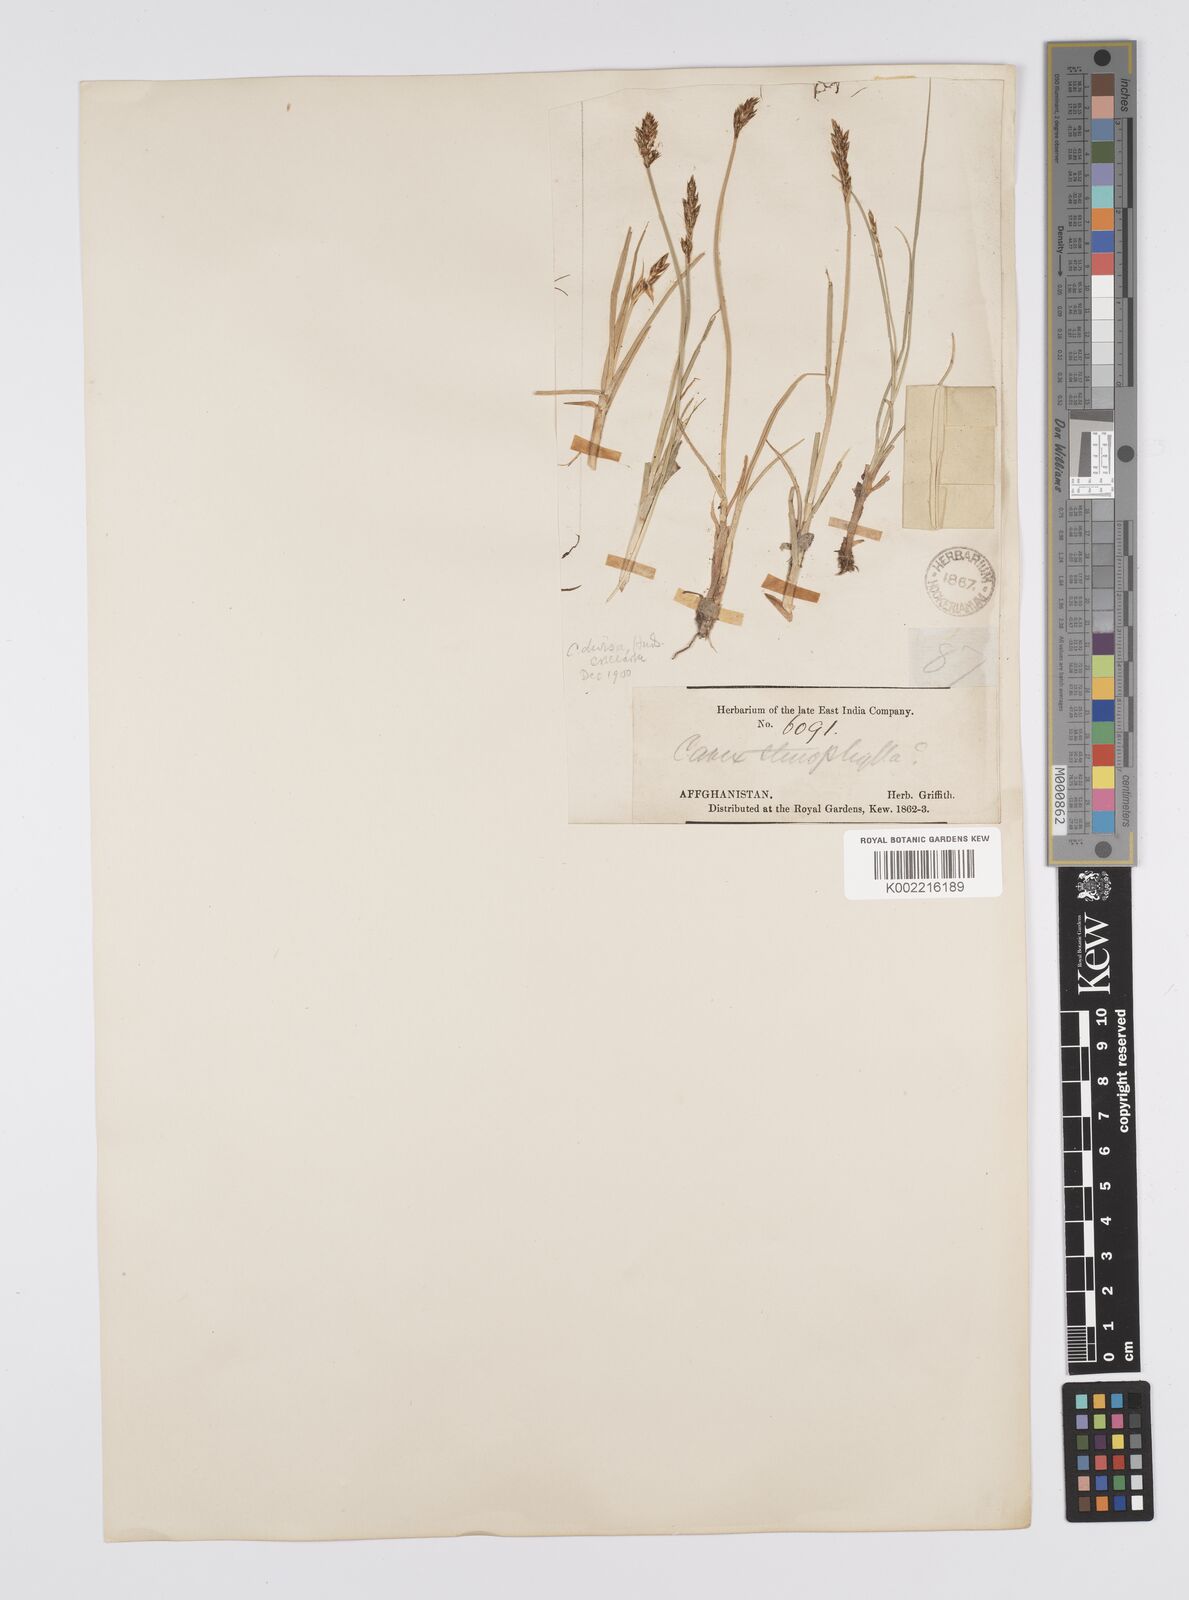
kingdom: Plantae
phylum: Tracheophyta
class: Liliopsida
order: Poales
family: Cyperaceae
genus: Carex
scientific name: Carex divisa
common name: Divided sedge
